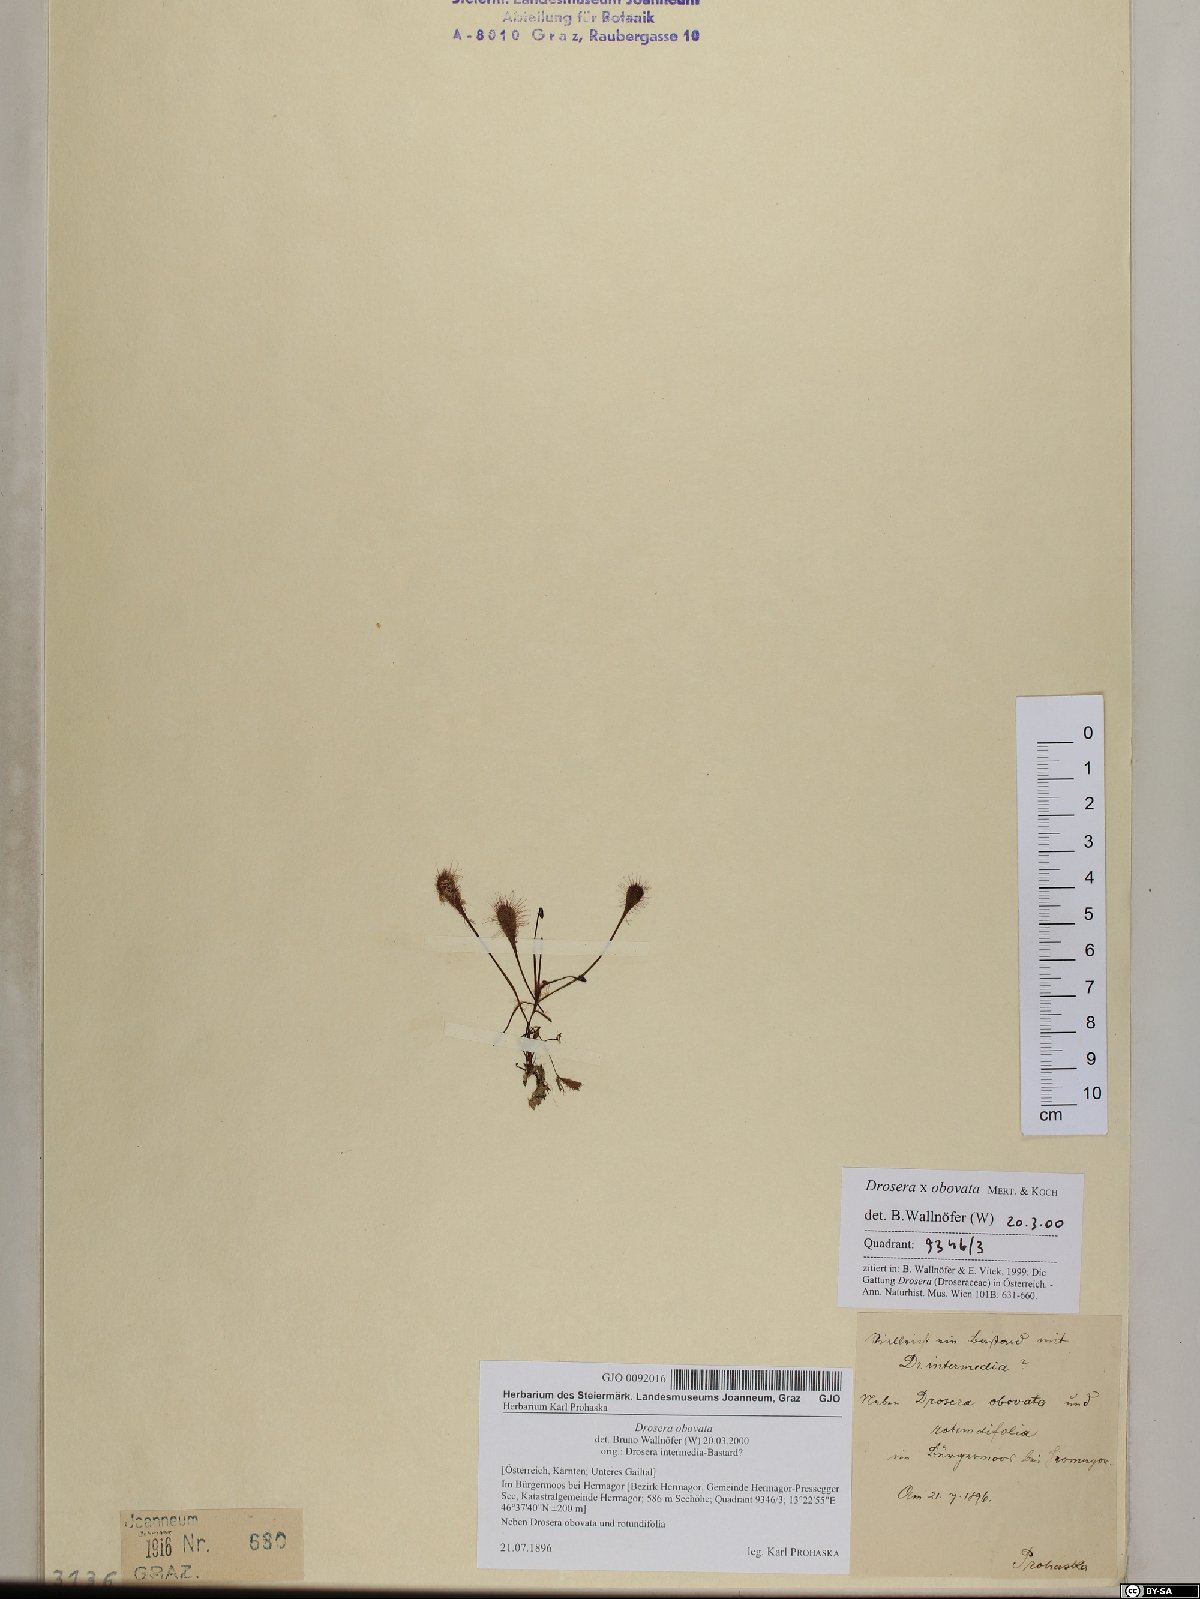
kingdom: Plantae
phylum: Tracheophyta
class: Magnoliopsida
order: Caryophyllales
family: Droseraceae
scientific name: Droseraceae
